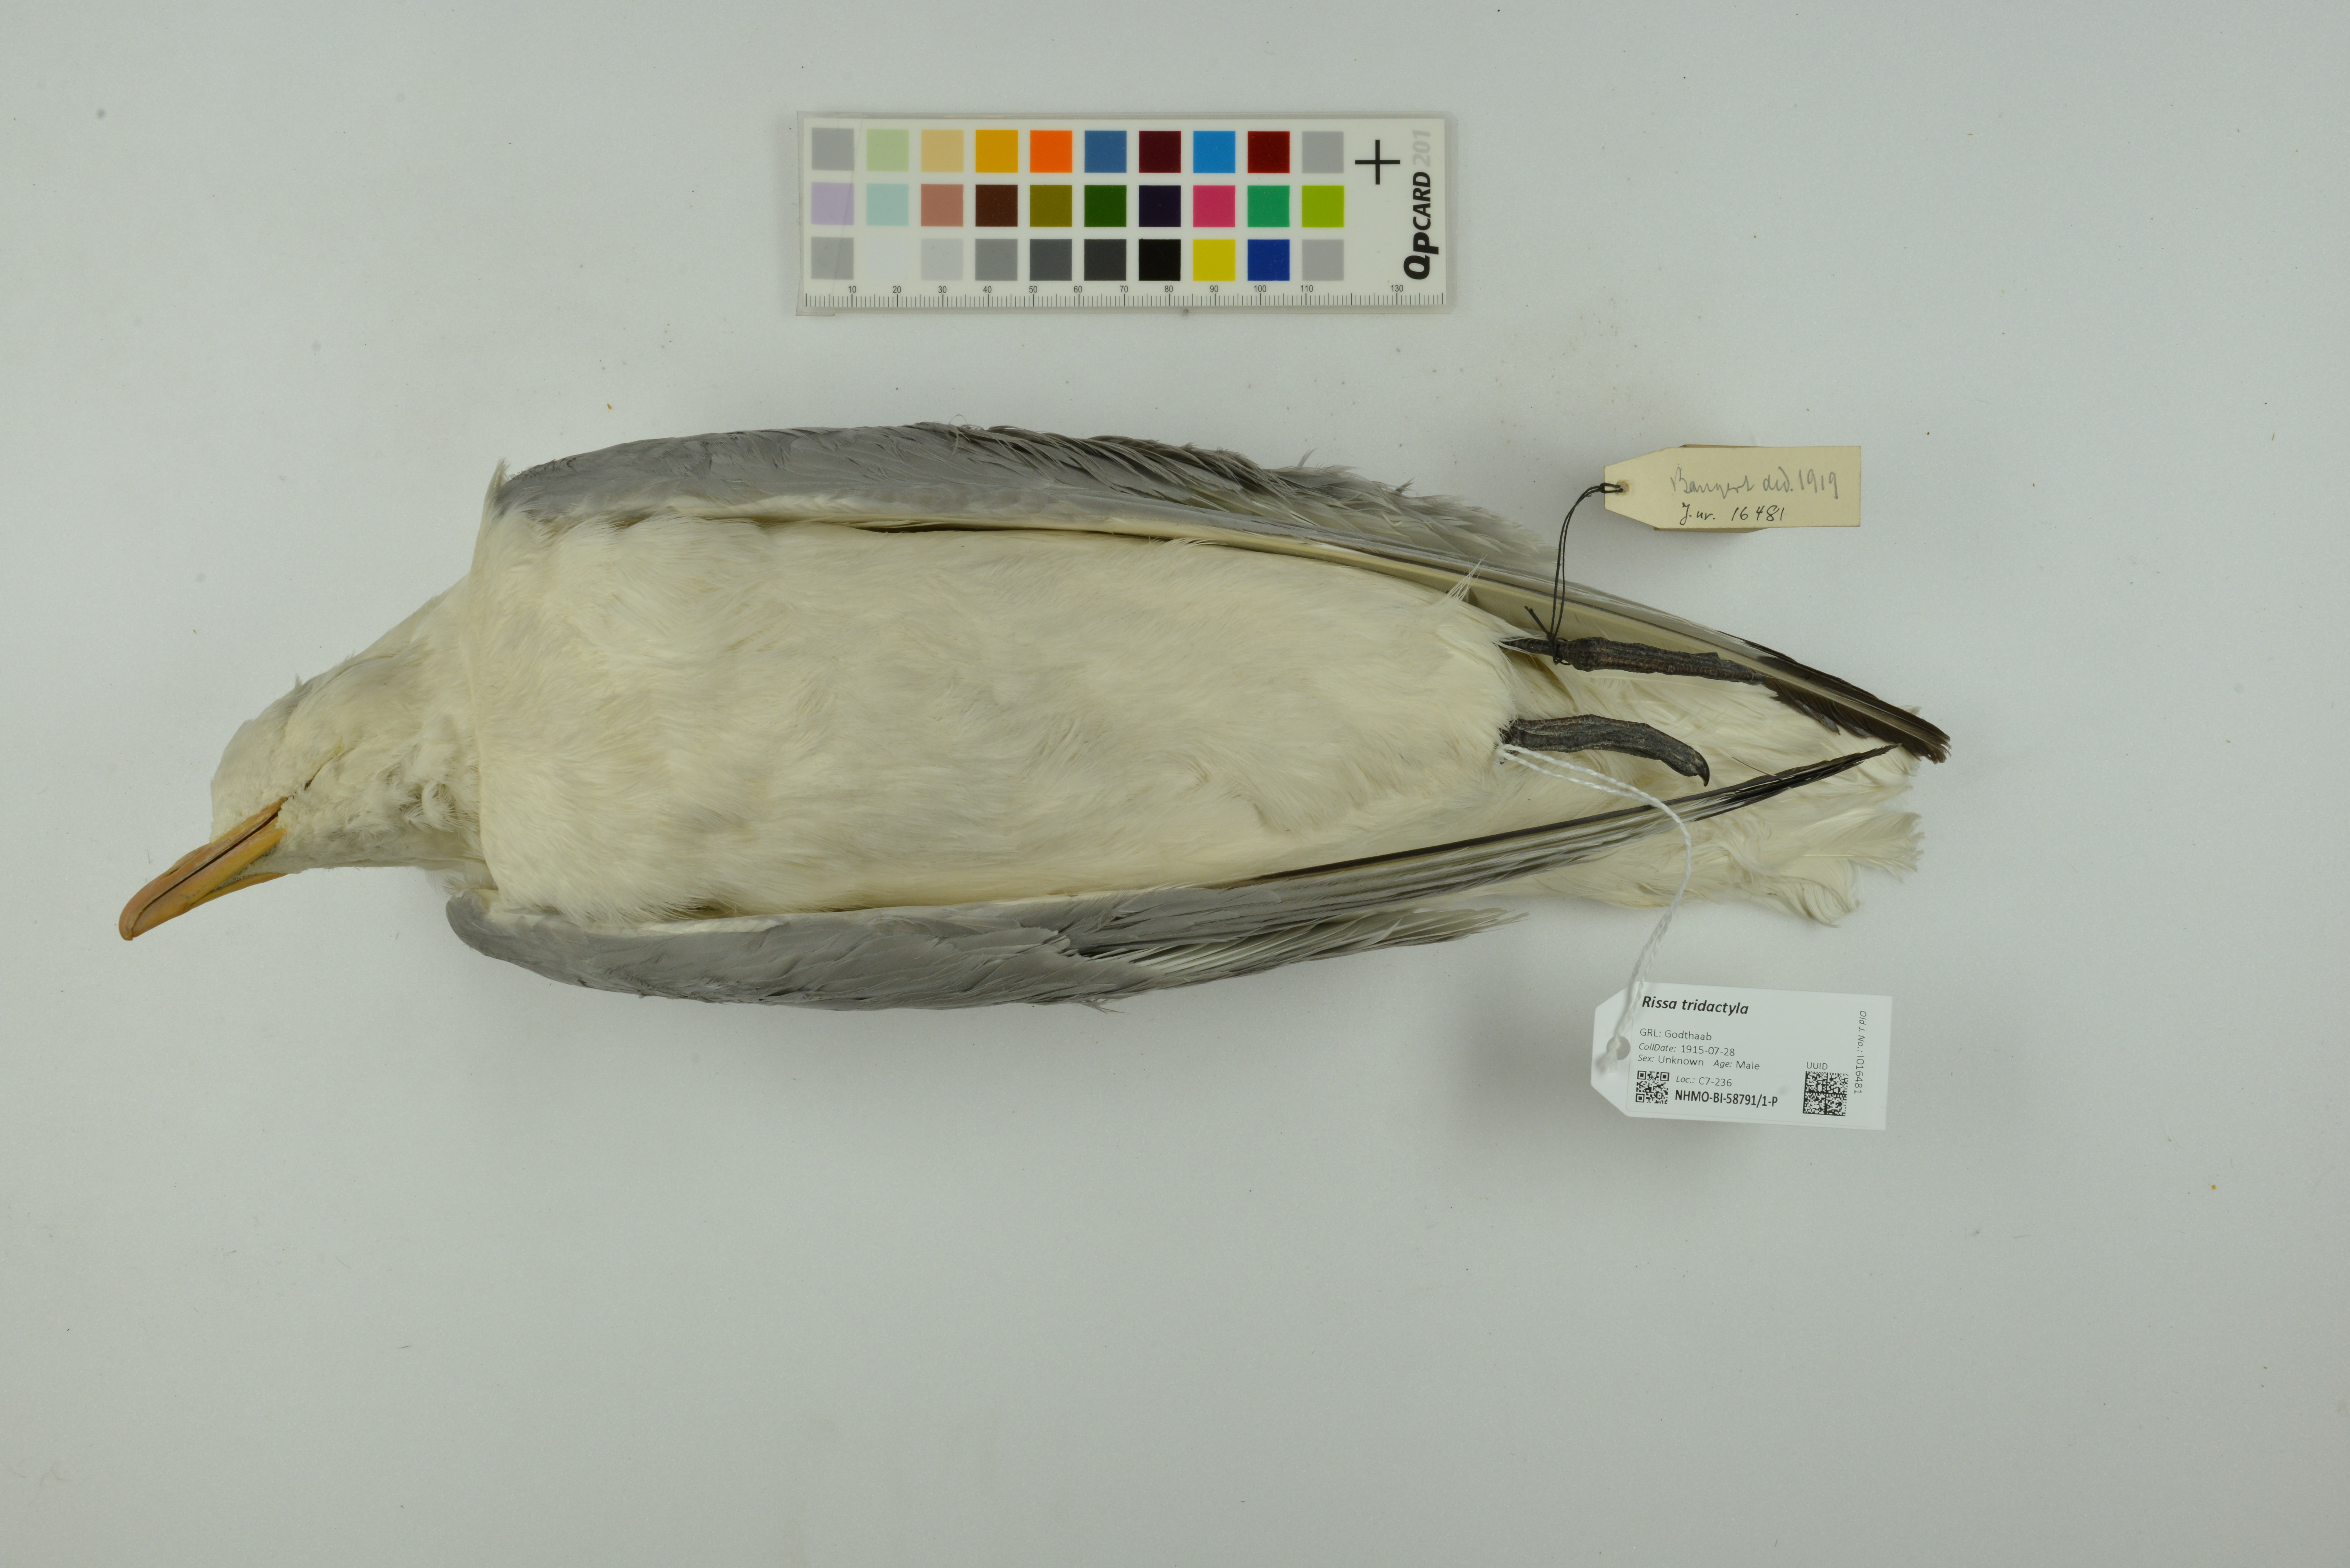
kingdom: Animalia
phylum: Chordata
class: Aves
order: Charadriiformes
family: Laridae
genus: Rissa
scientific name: Rissa tridactyla
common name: Black-legged kittiwake
